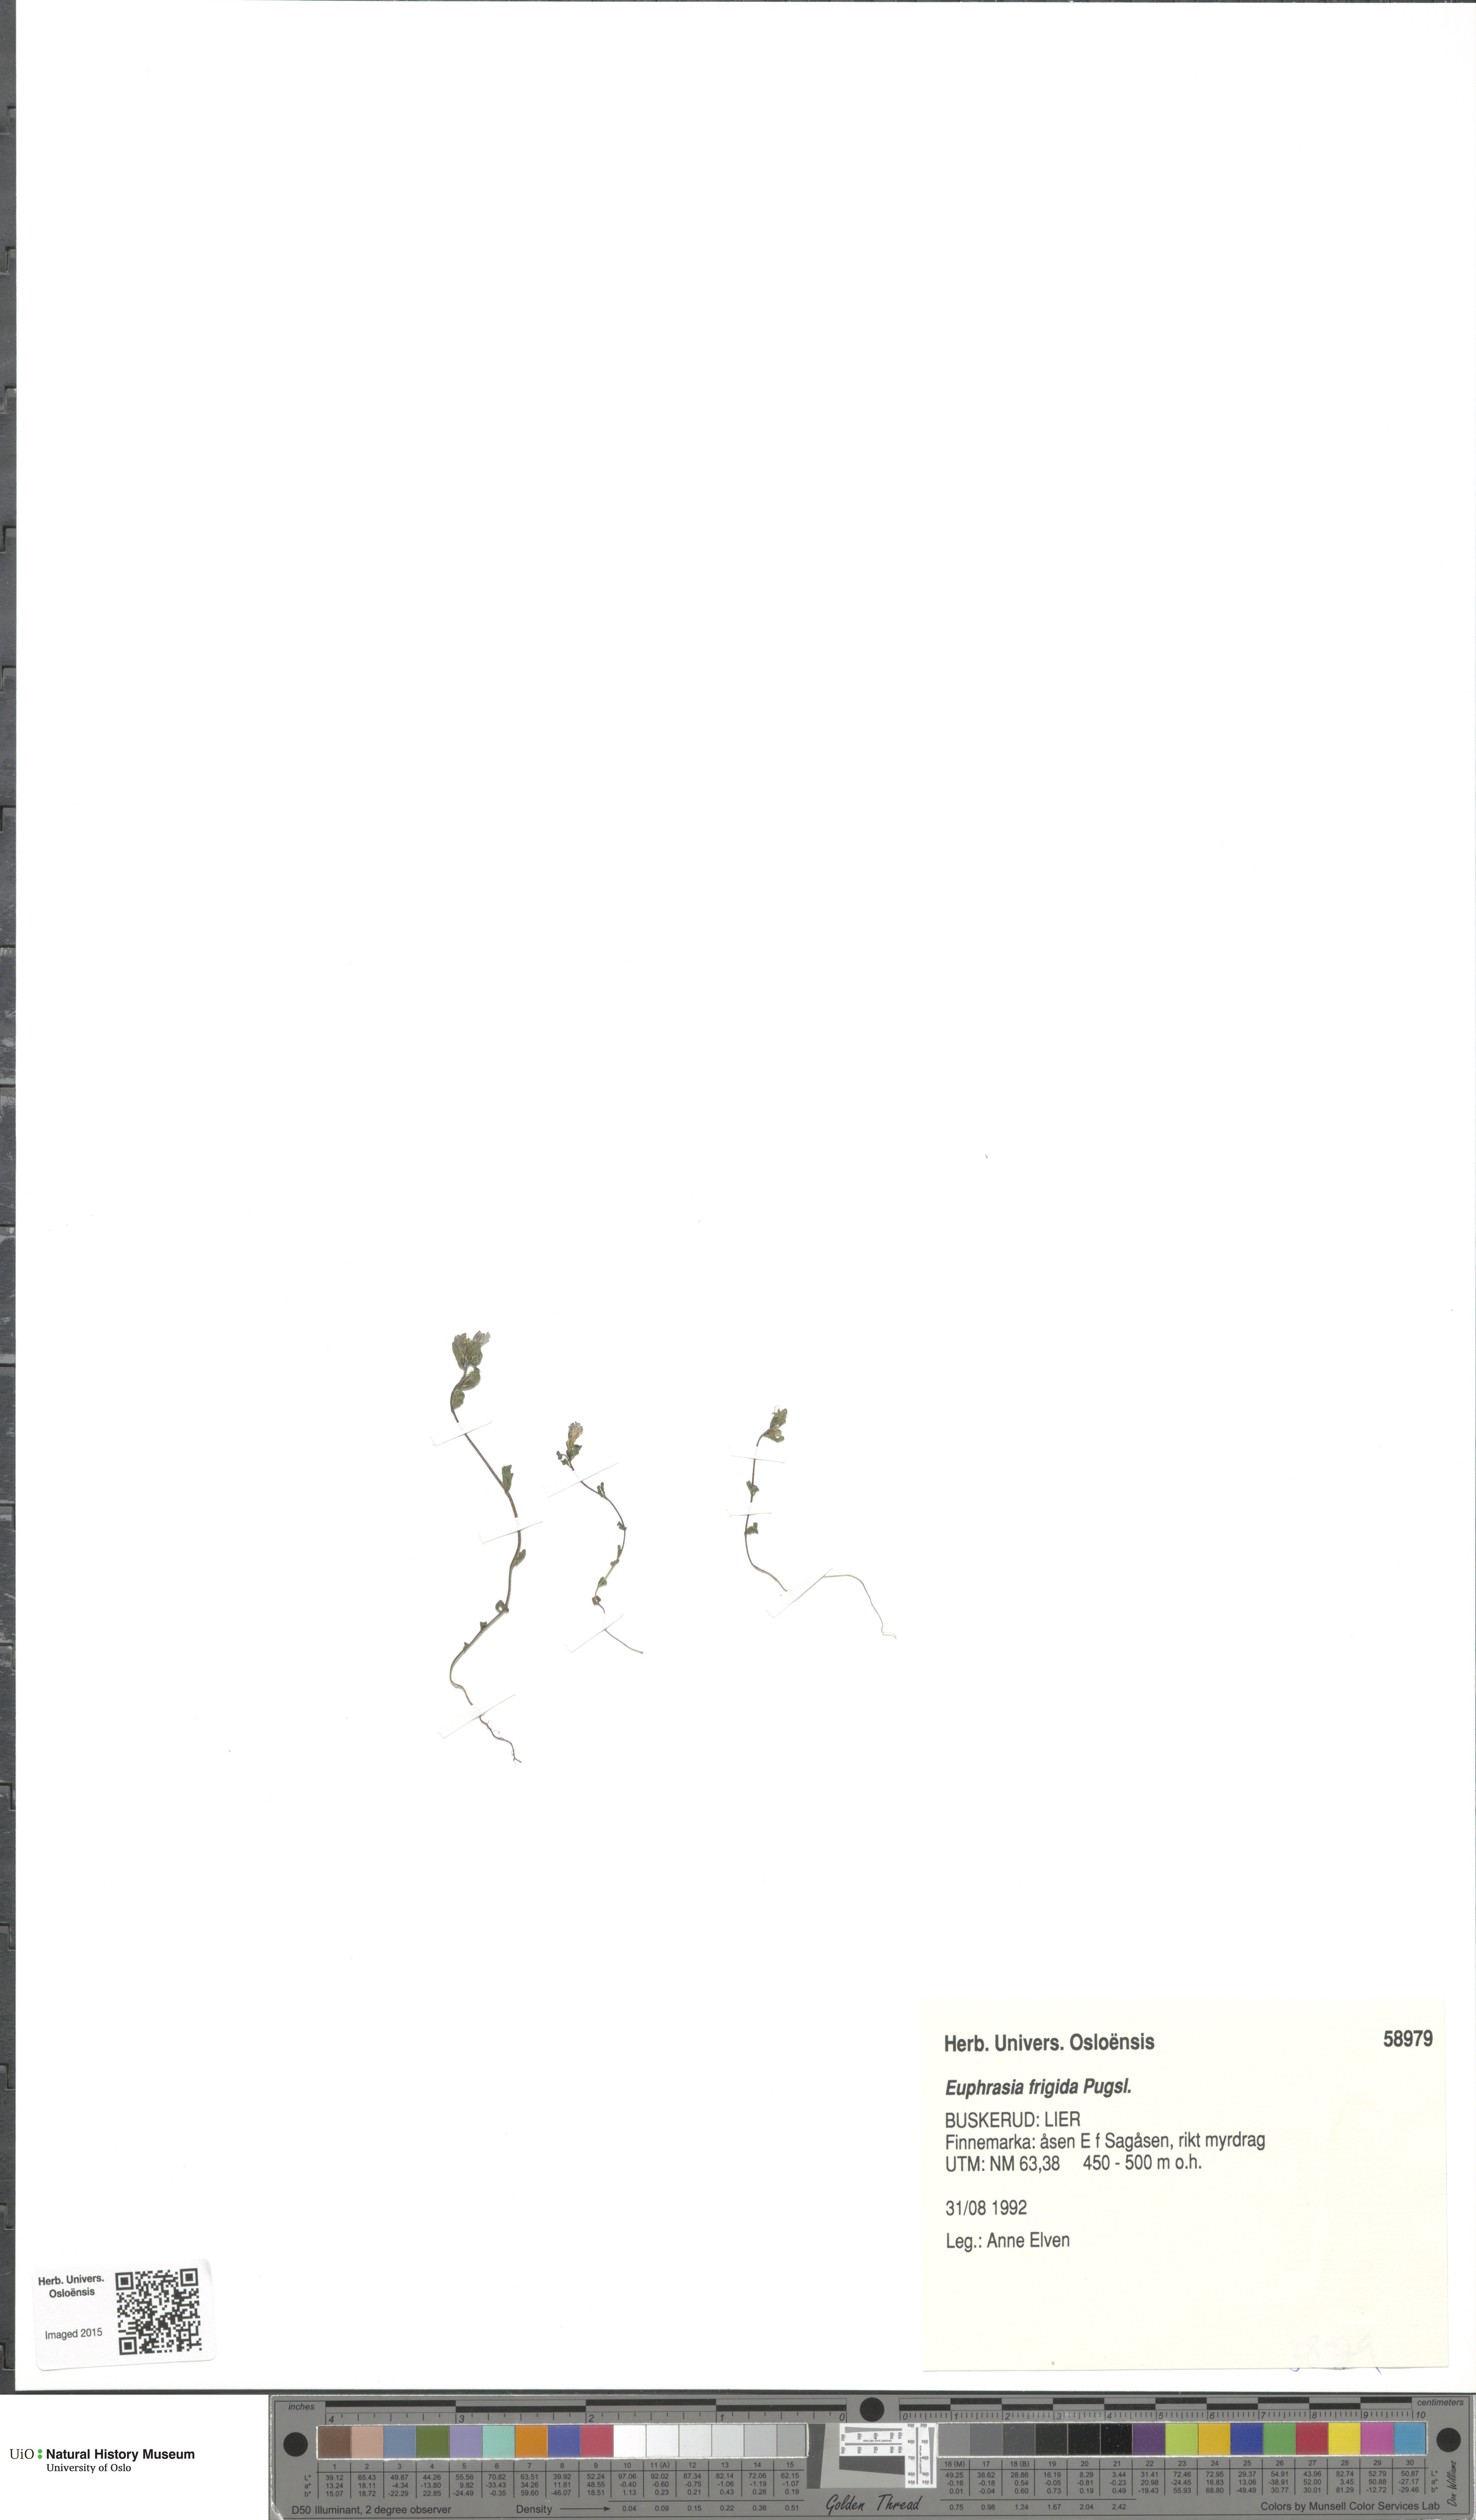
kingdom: Plantae
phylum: Tracheophyta
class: Magnoliopsida
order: Lamiales
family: Orobanchaceae
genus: Euphrasia
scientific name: Euphrasia frigida
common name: An eyebright
